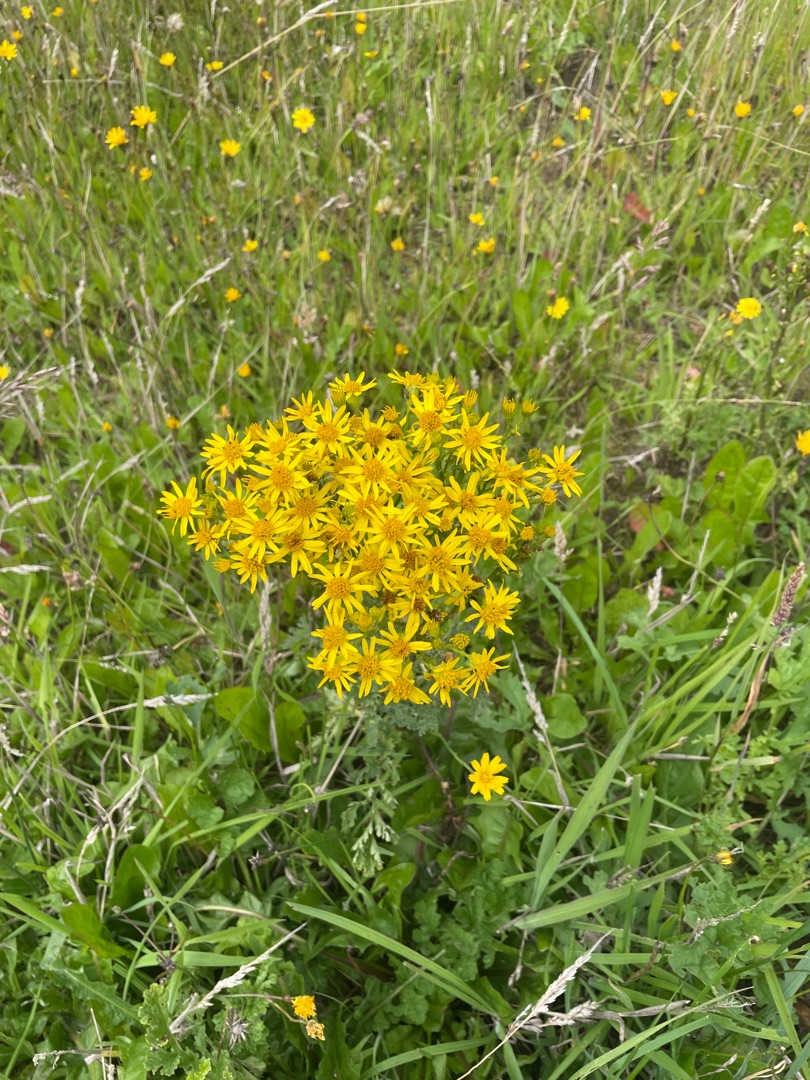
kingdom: Plantae
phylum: Tracheophyta
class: Magnoliopsida
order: Asterales
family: Asteraceae
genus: Jacobaea
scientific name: Jacobaea vulgaris
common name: Eng-brandbæger
